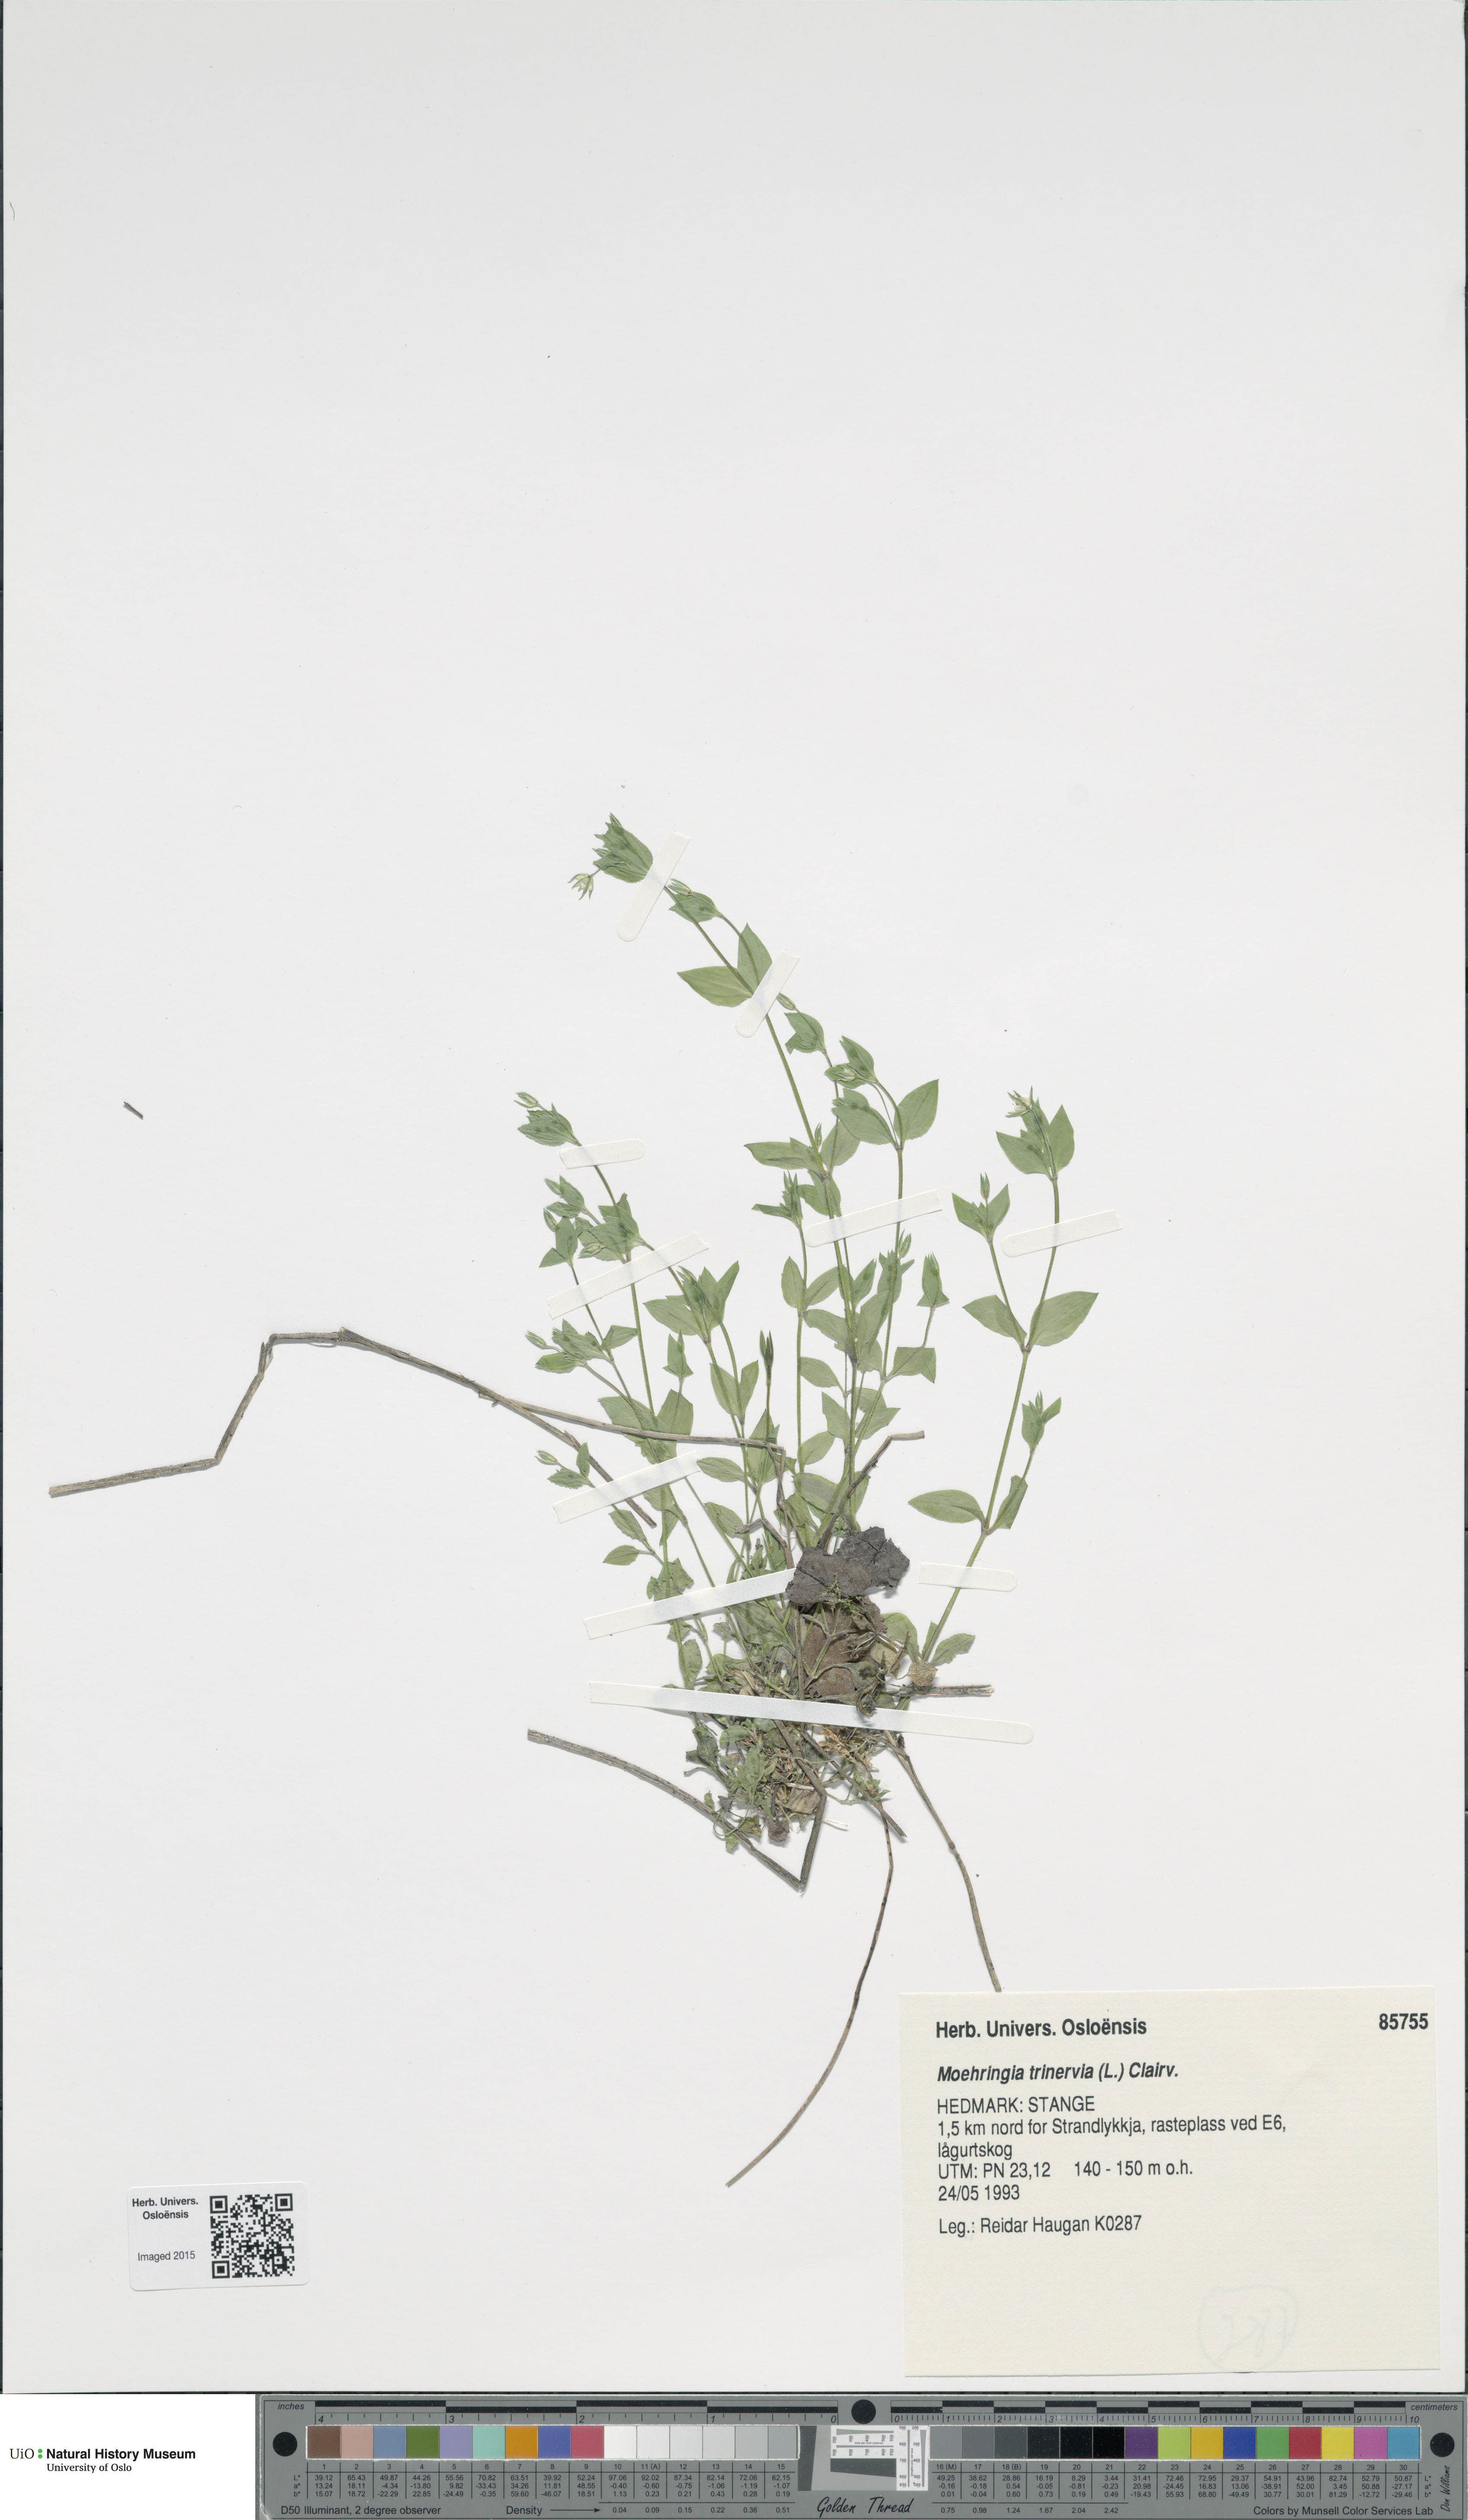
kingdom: Plantae
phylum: Tracheophyta
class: Magnoliopsida
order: Caryophyllales
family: Caryophyllaceae
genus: Moehringia
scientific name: Moehringia trinervia
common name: Three-nerved sandwort
